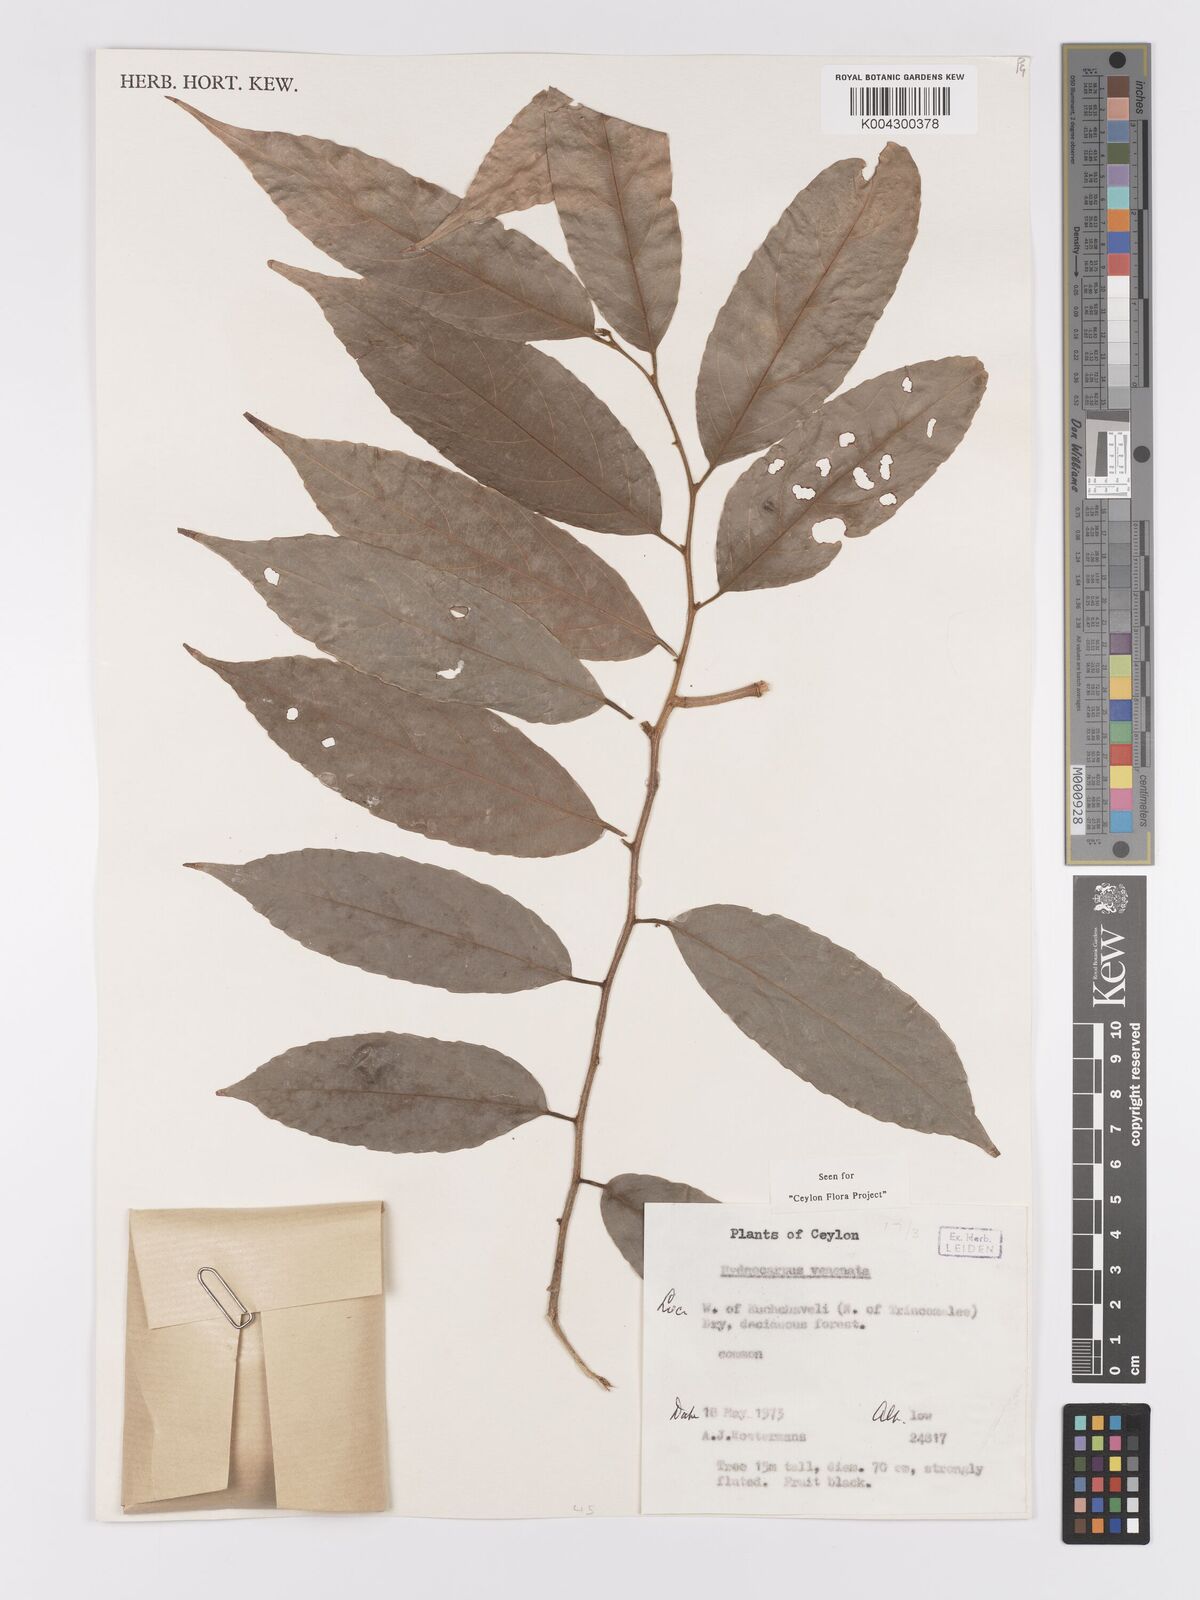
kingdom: Plantae
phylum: Tracheophyta
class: Magnoliopsida
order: Malpighiales
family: Achariaceae
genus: Hydnocarpus
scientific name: Hydnocarpus venenatus
